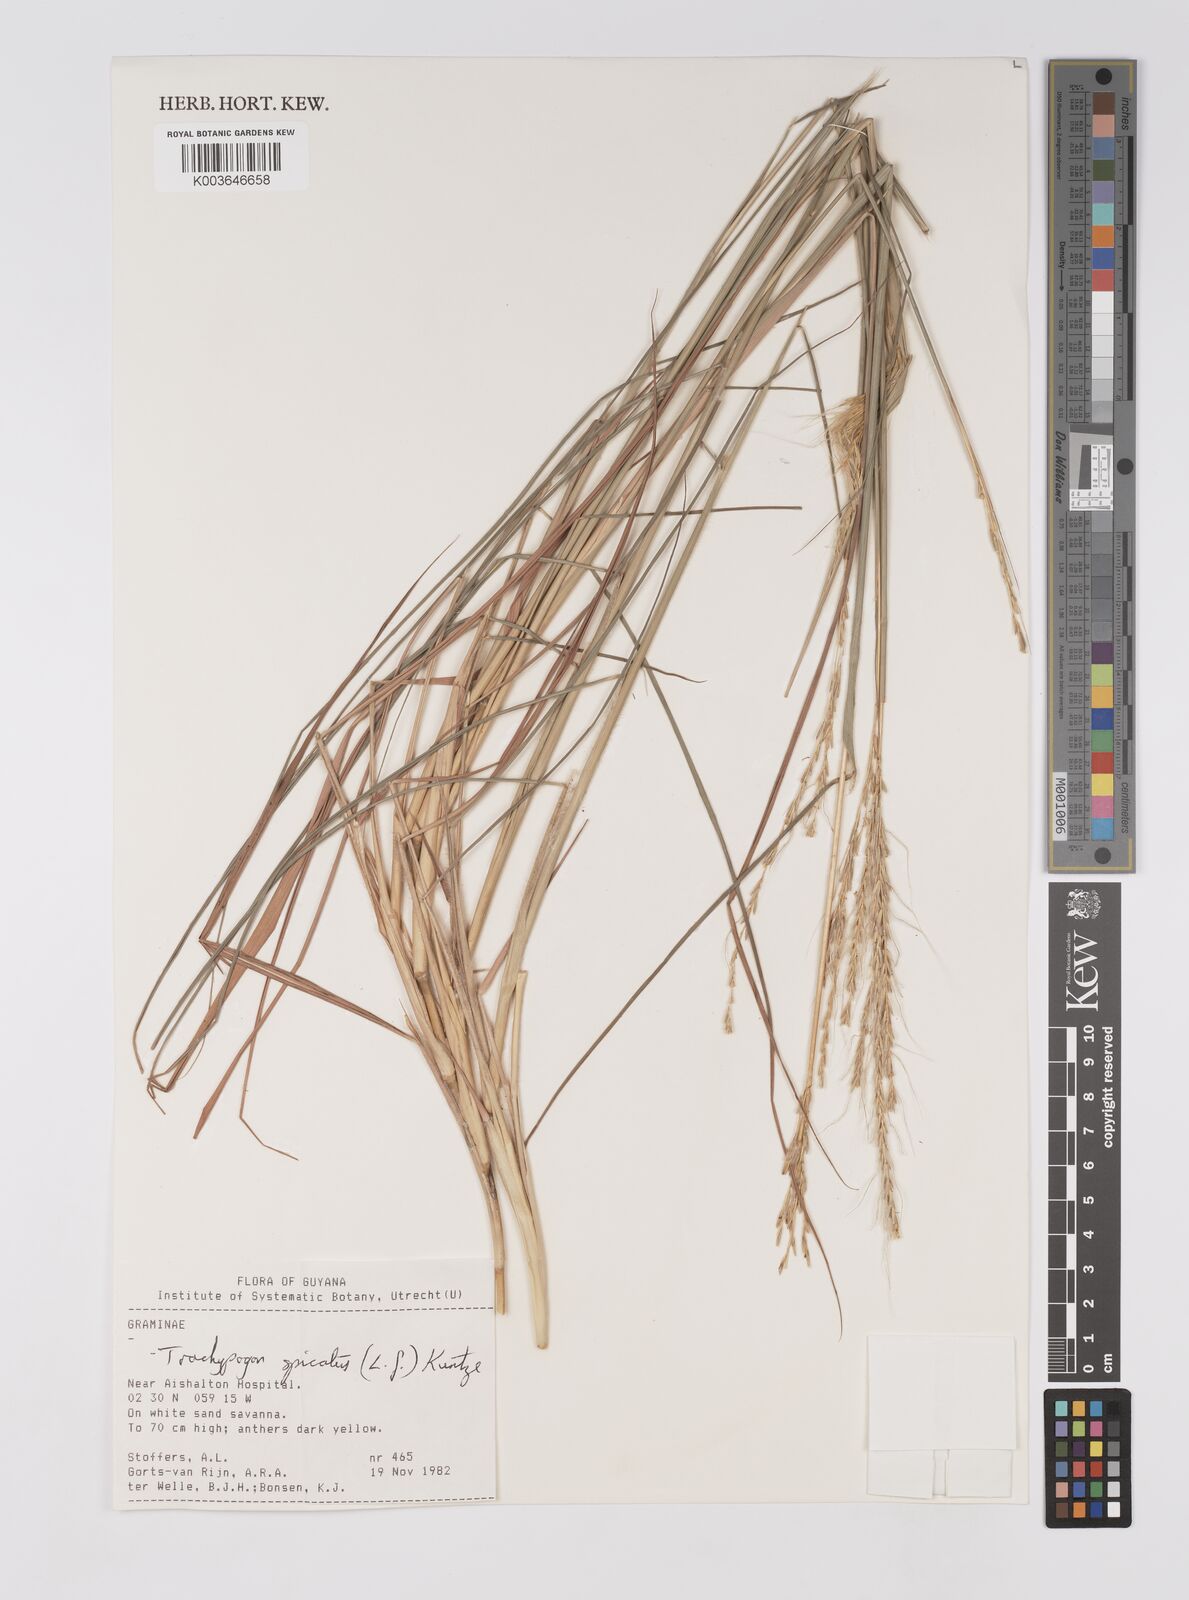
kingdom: Plantae
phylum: Tracheophyta
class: Liliopsida
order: Poales
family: Poaceae
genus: Trachypogon
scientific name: Trachypogon spicatus
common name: Crinkle-awn
